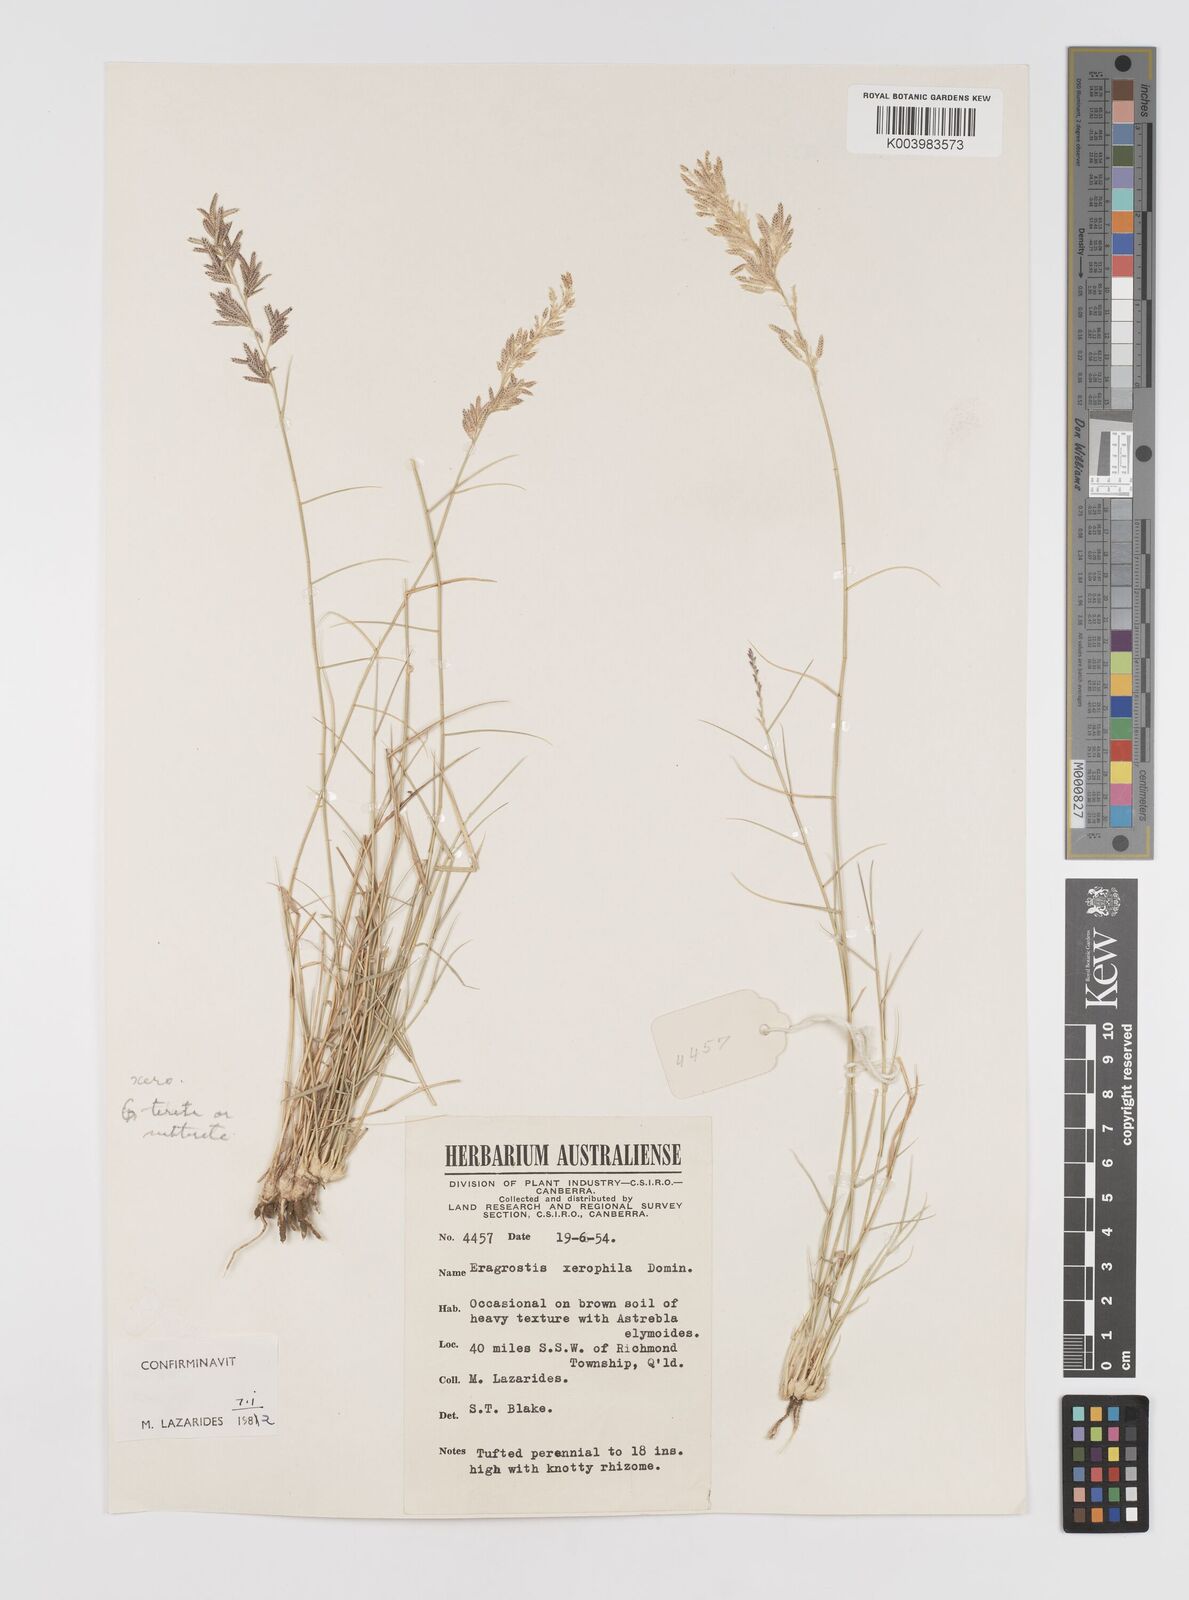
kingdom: Plantae
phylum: Tracheophyta
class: Liliopsida
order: Poales
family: Poaceae
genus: Eragrostis
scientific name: Eragrostis xerophila
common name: Wire wandarrie grass
